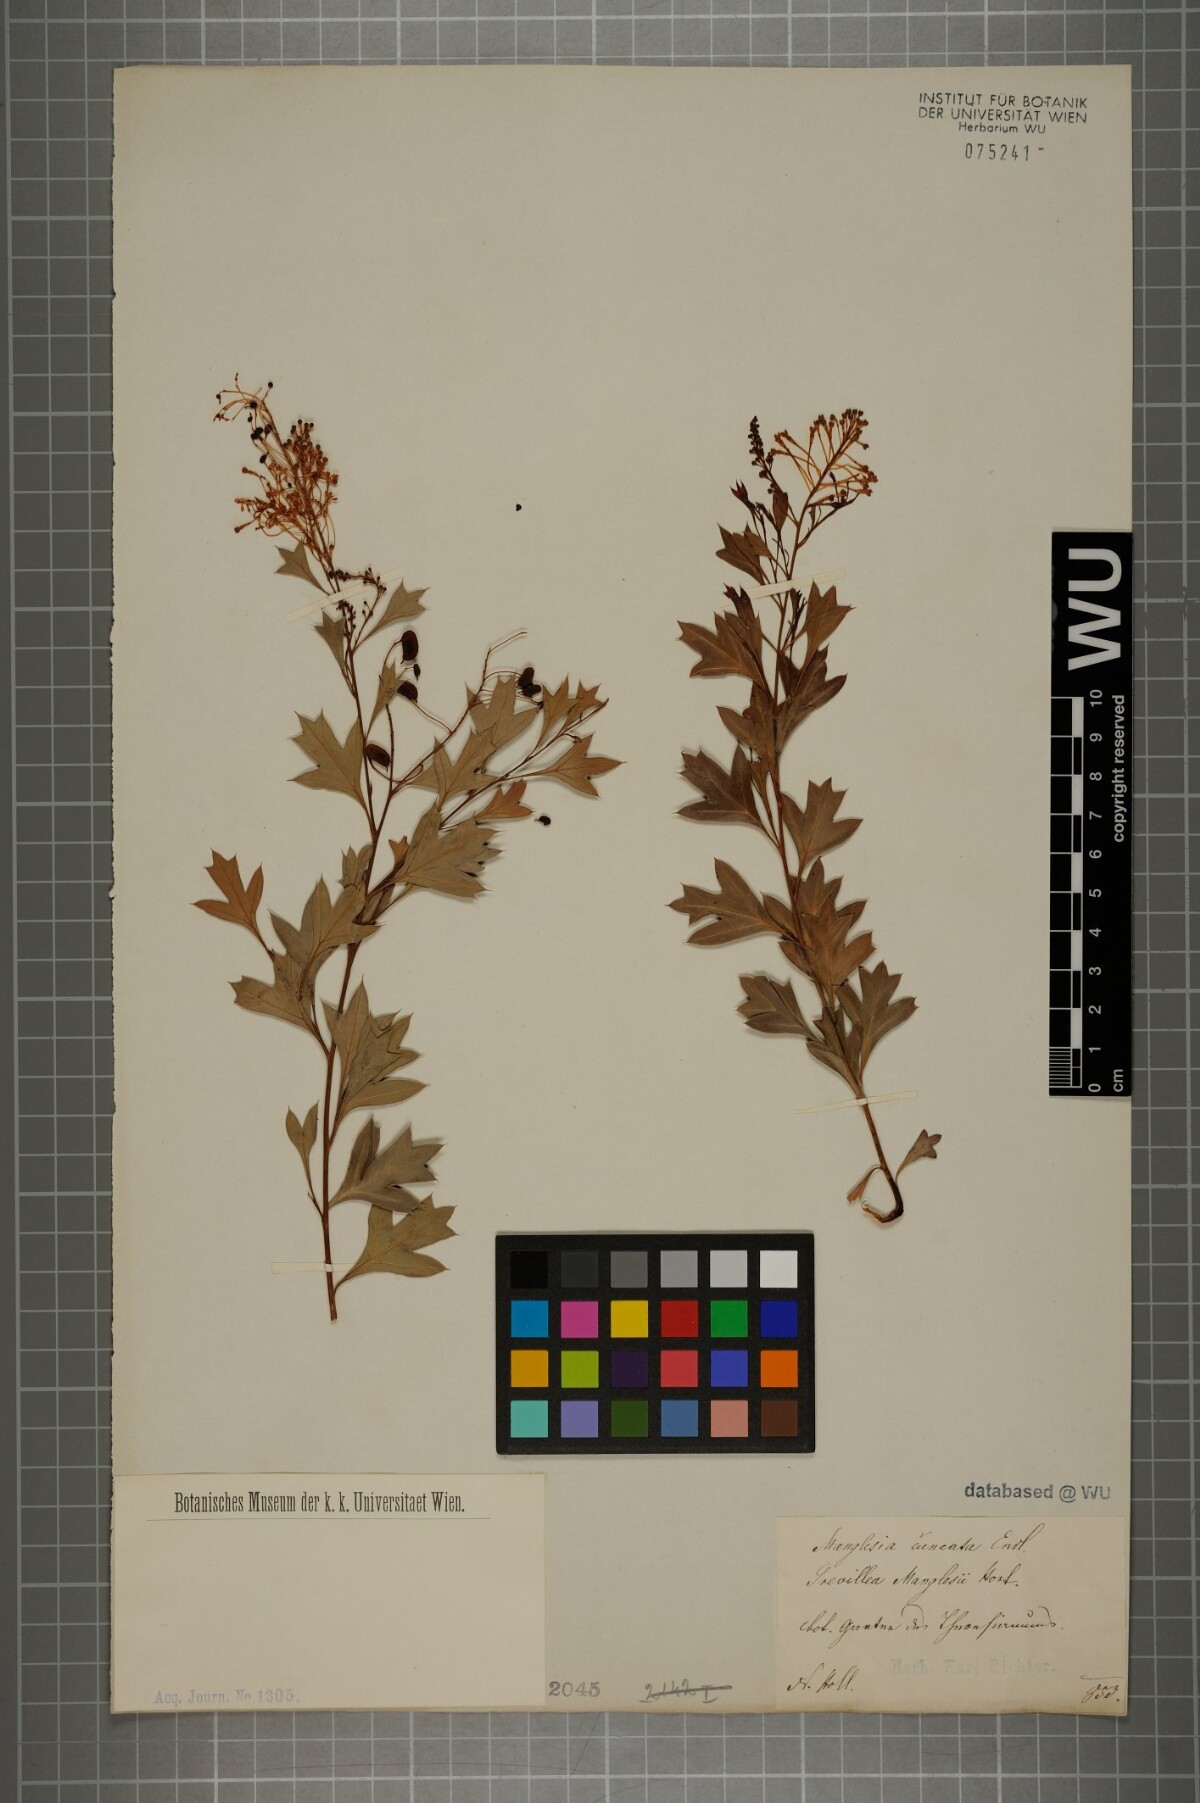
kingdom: Plantae
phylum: Tracheophyta
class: Magnoliopsida
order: Proteales
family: Proteaceae
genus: Grevillea
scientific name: Grevillea manglesii
